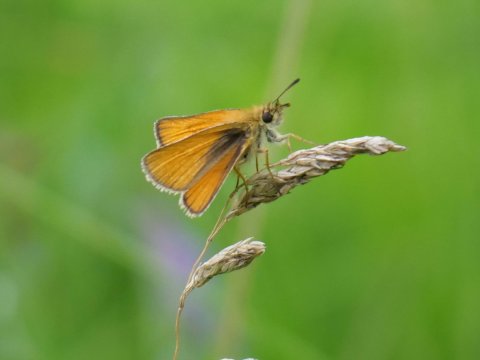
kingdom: Animalia
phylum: Arthropoda
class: Insecta
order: Lepidoptera
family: Hesperiidae
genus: Thymelicus
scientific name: Thymelicus lineola
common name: European Skipper
